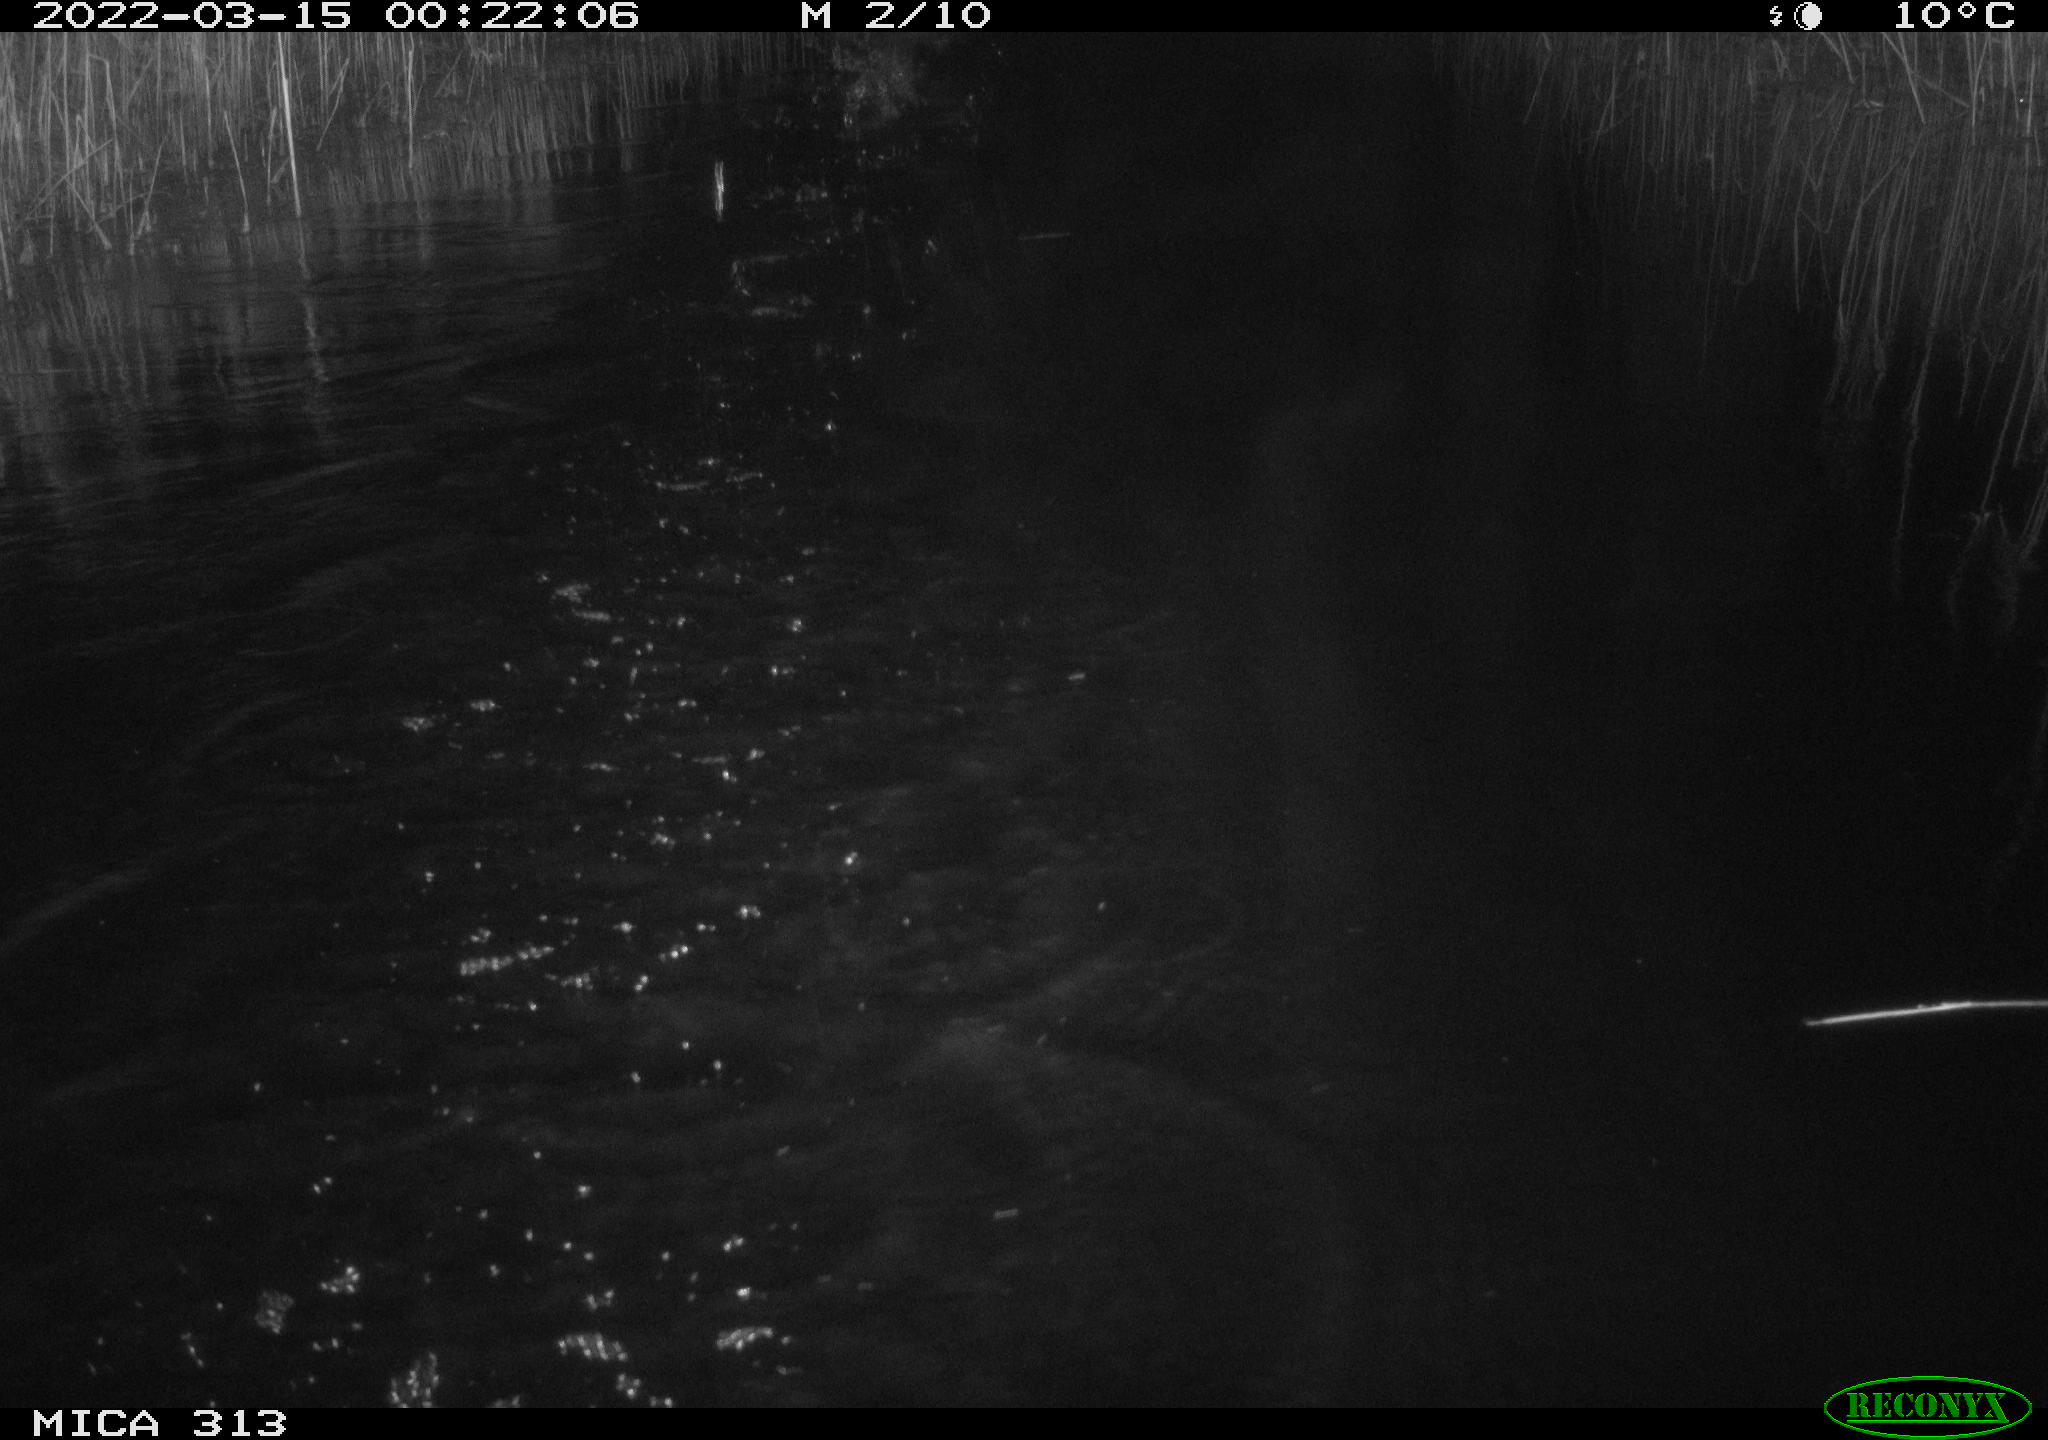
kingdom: Animalia
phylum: Chordata
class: Aves
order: Anseriformes
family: Anatidae
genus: Anas
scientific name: Anas platyrhynchos
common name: Mallard
